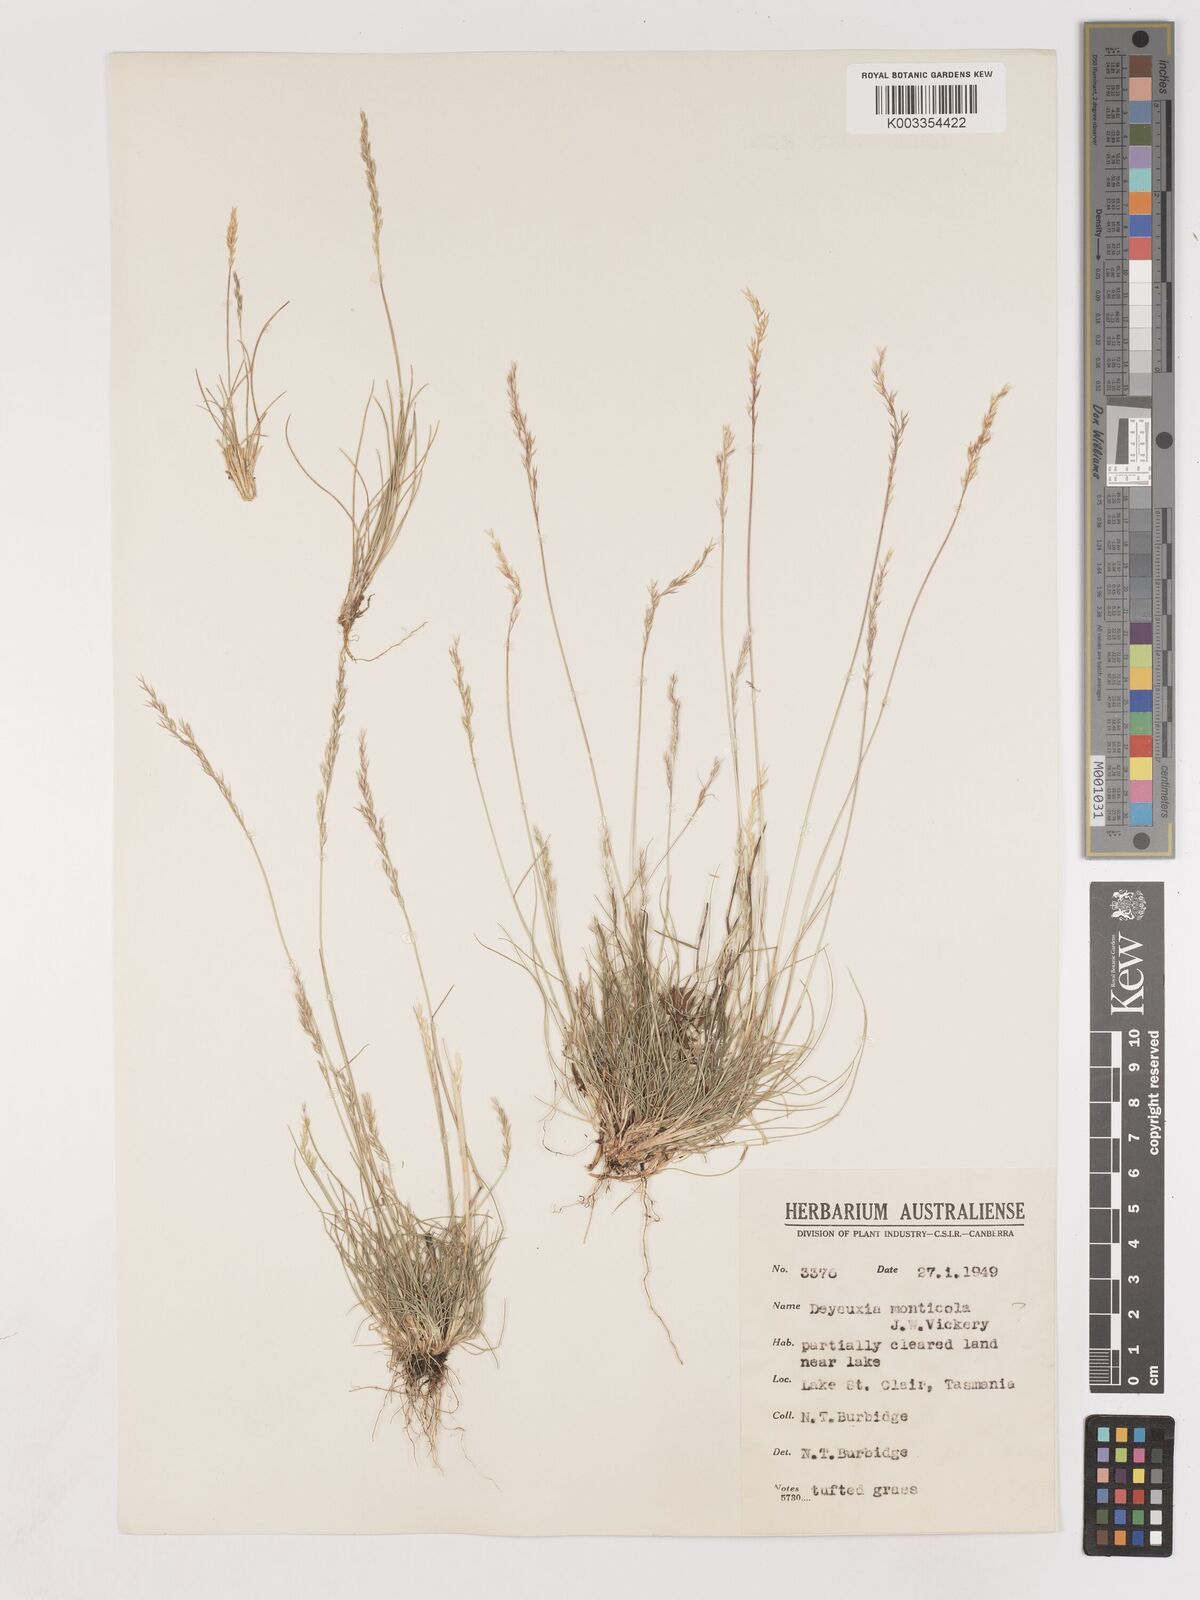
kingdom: Plantae
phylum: Tracheophyta
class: Liliopsida
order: Poales
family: Poaceae
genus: Calamagrostis
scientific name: Calamagrostis
